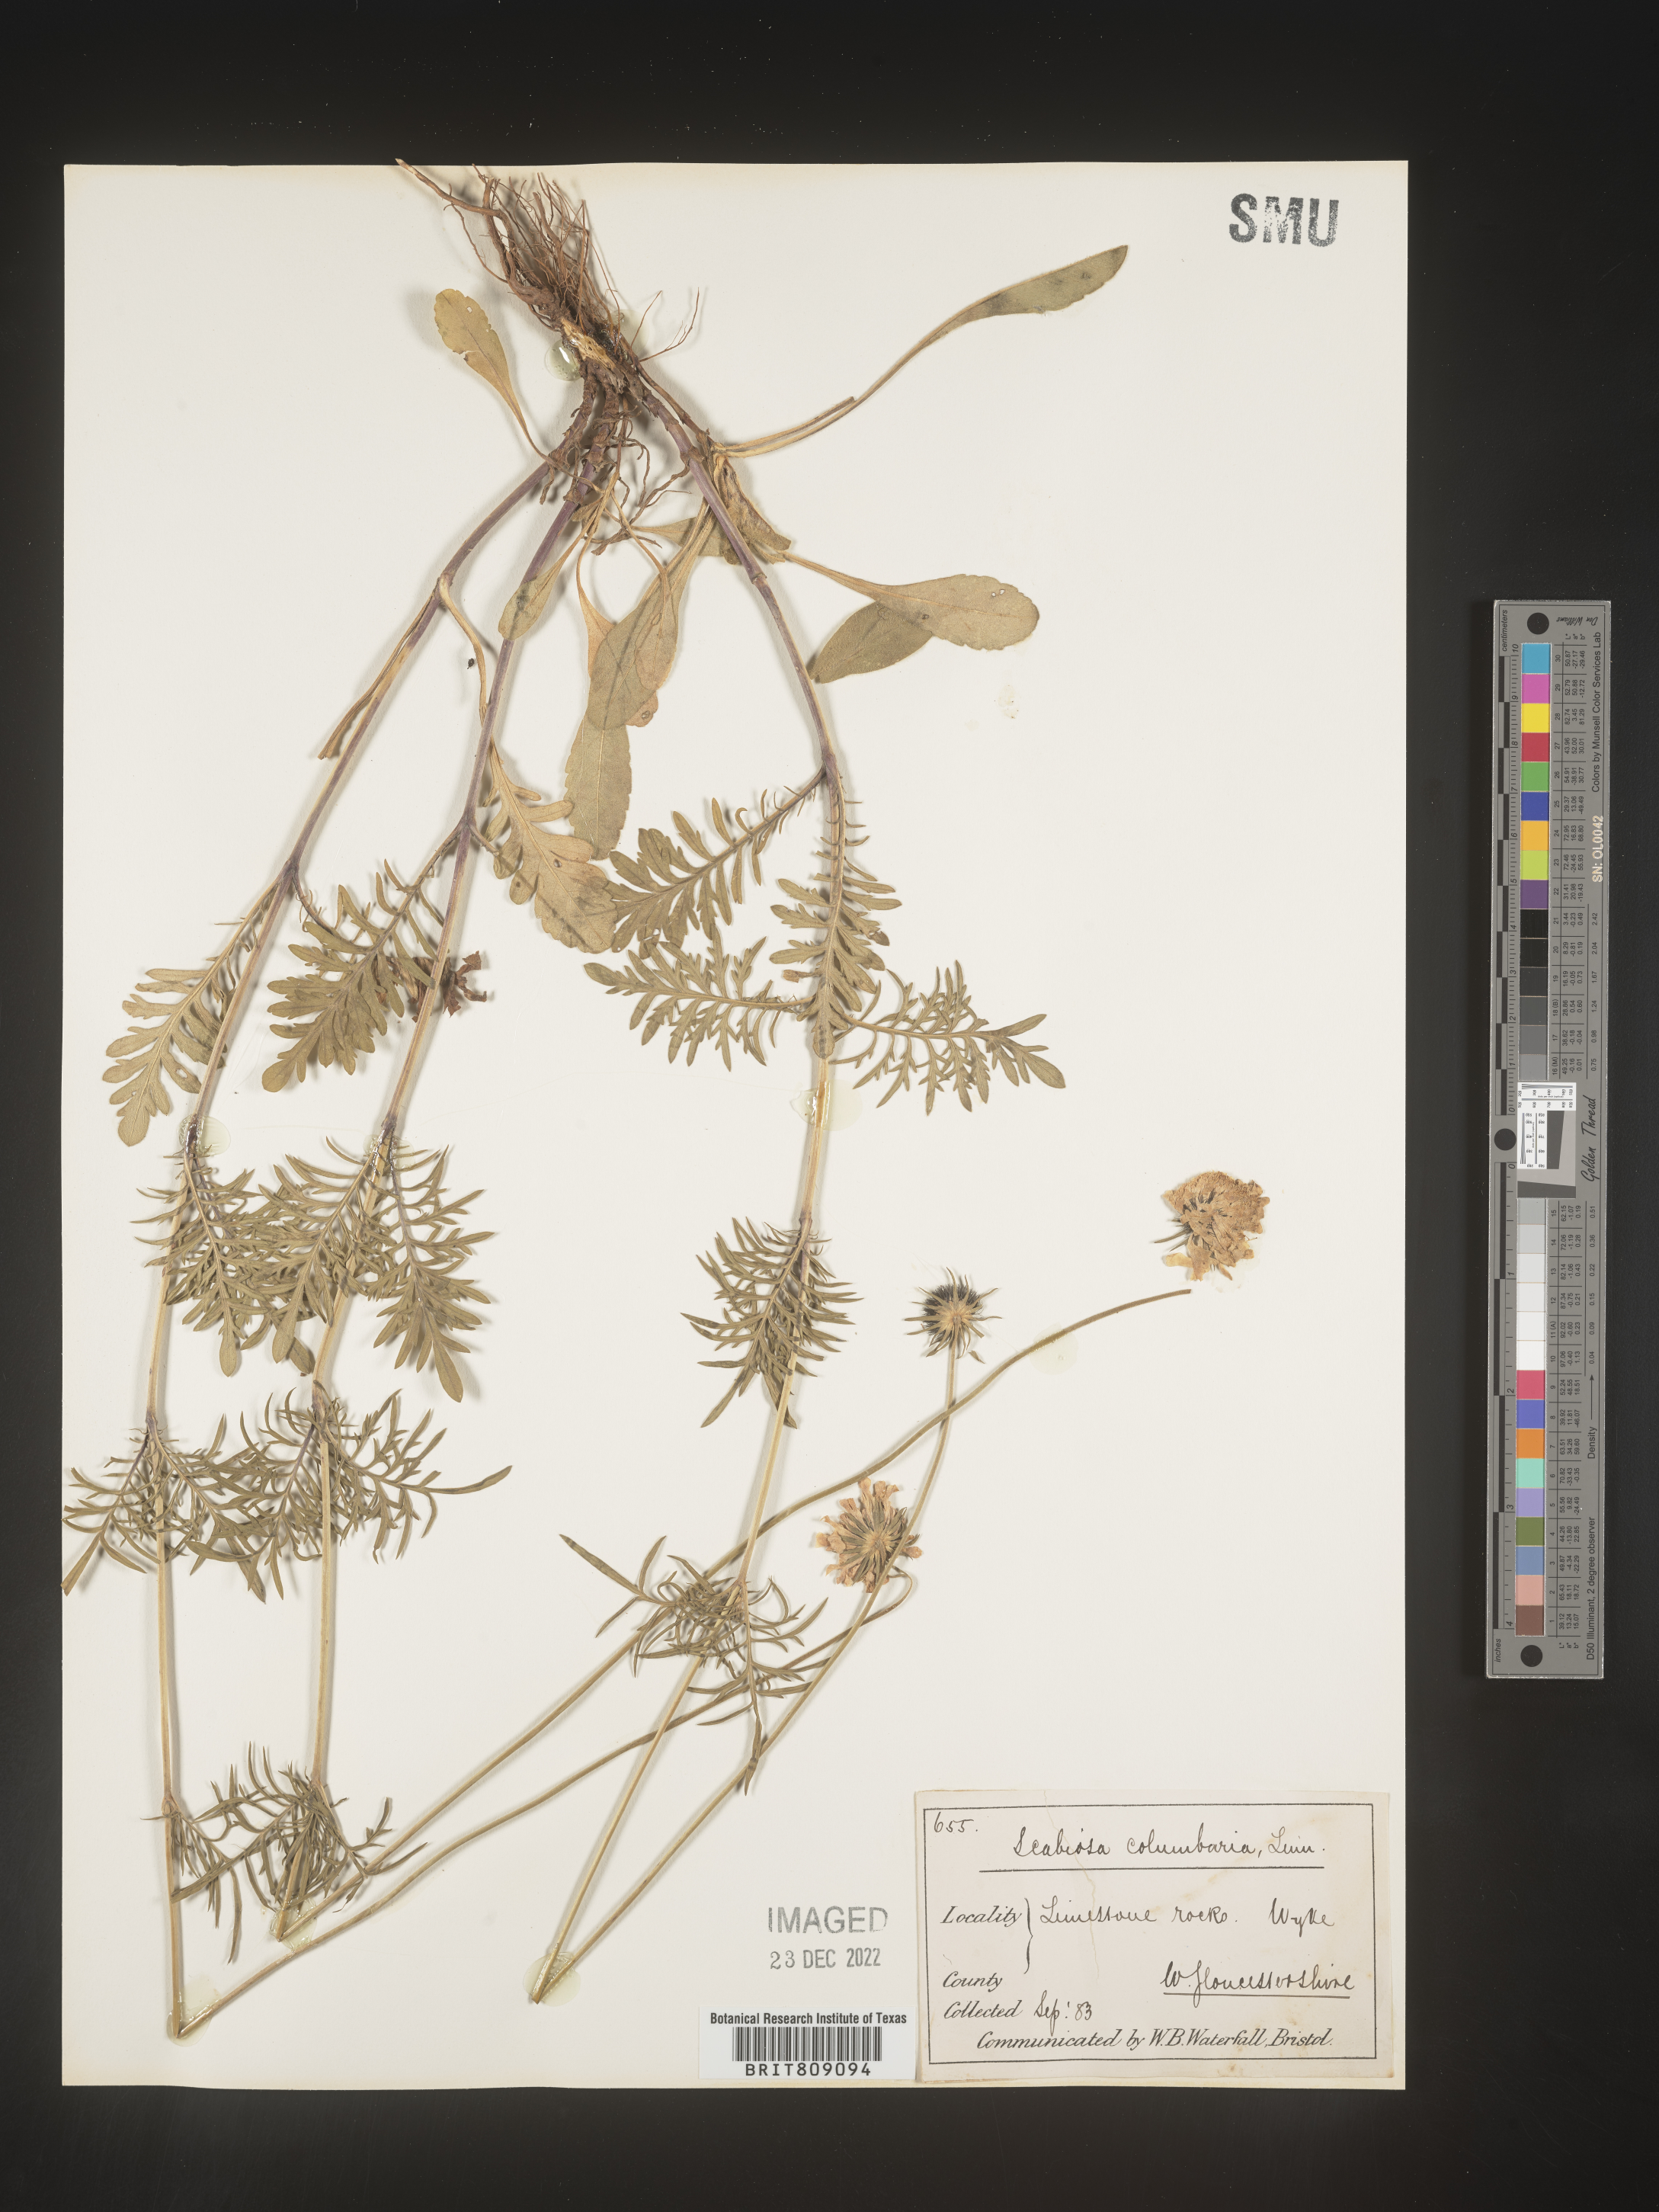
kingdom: Plantae
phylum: Tracheophyta
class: Magnoliopsida
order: Dipsacales
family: Caprifoliaceae
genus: Scabiosa
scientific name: Scabiosa
